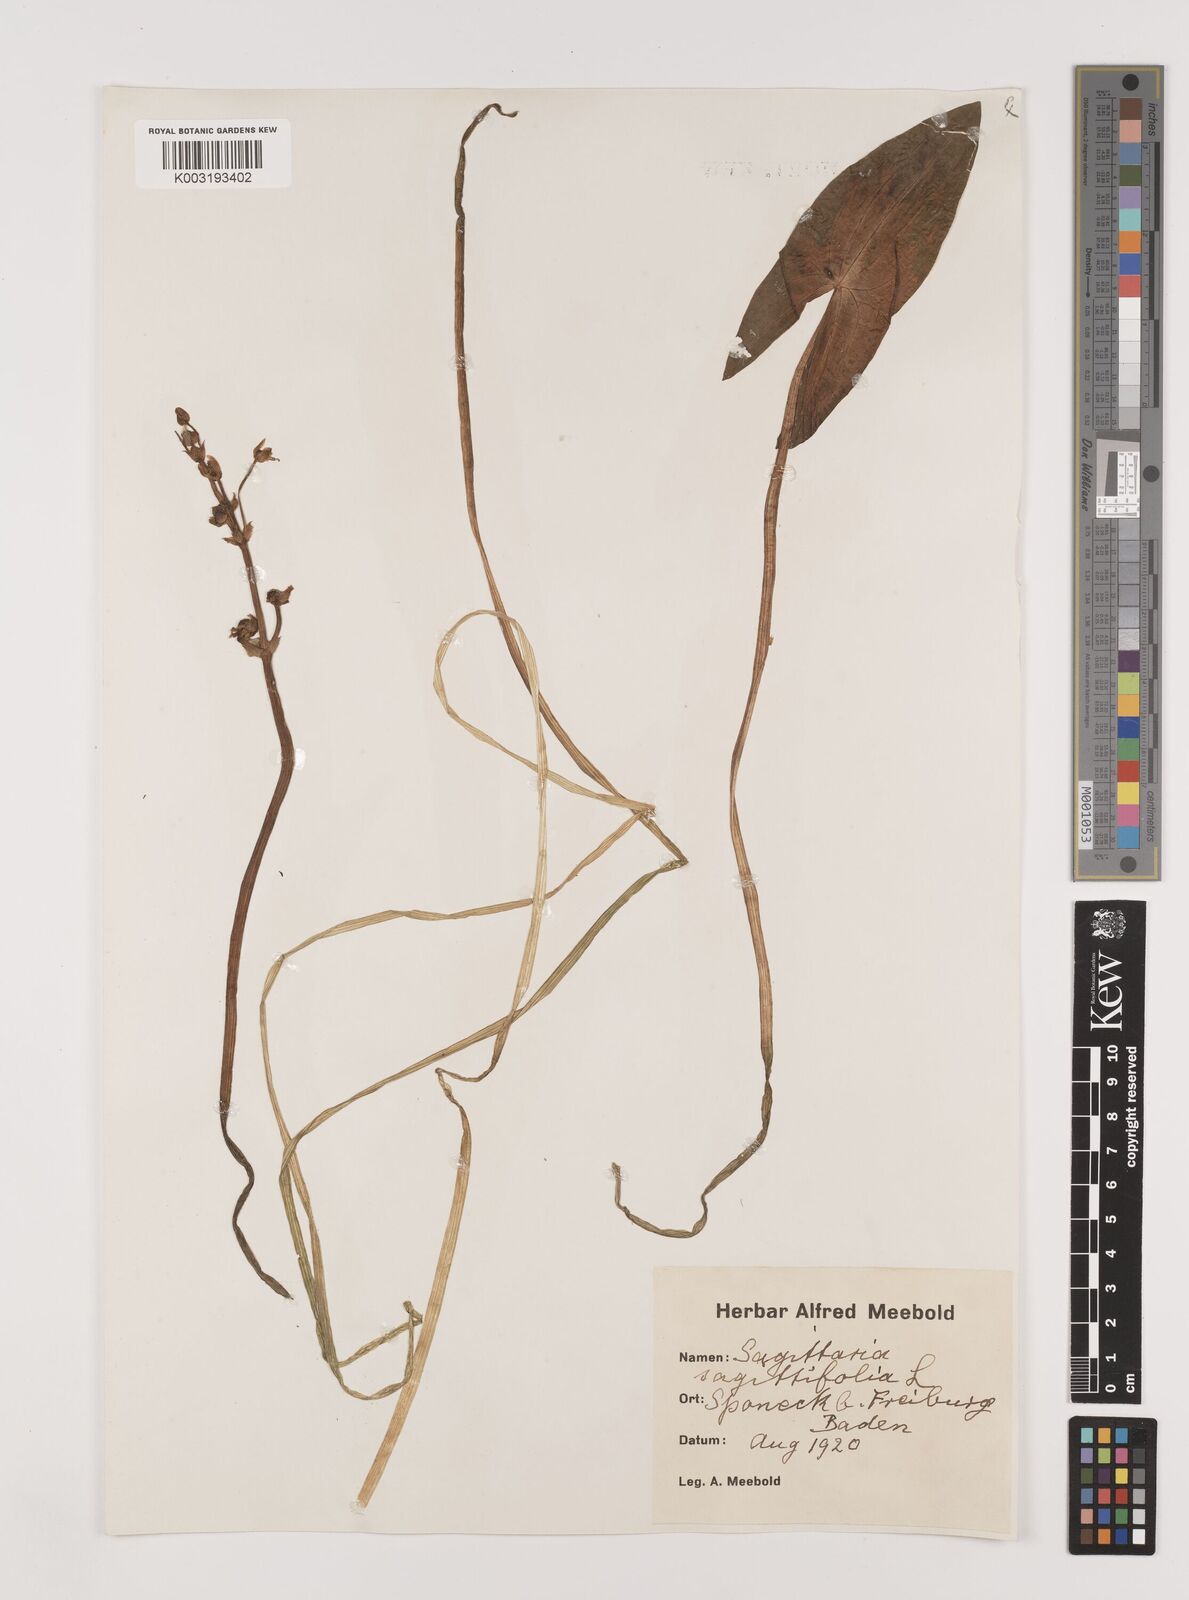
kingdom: Plantae
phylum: Tracheophyta
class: Liliopsida
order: Alismatales
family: Alismataceae
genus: Sagittaria
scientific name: Sagittaria sagittifolia
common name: Arrowhead
